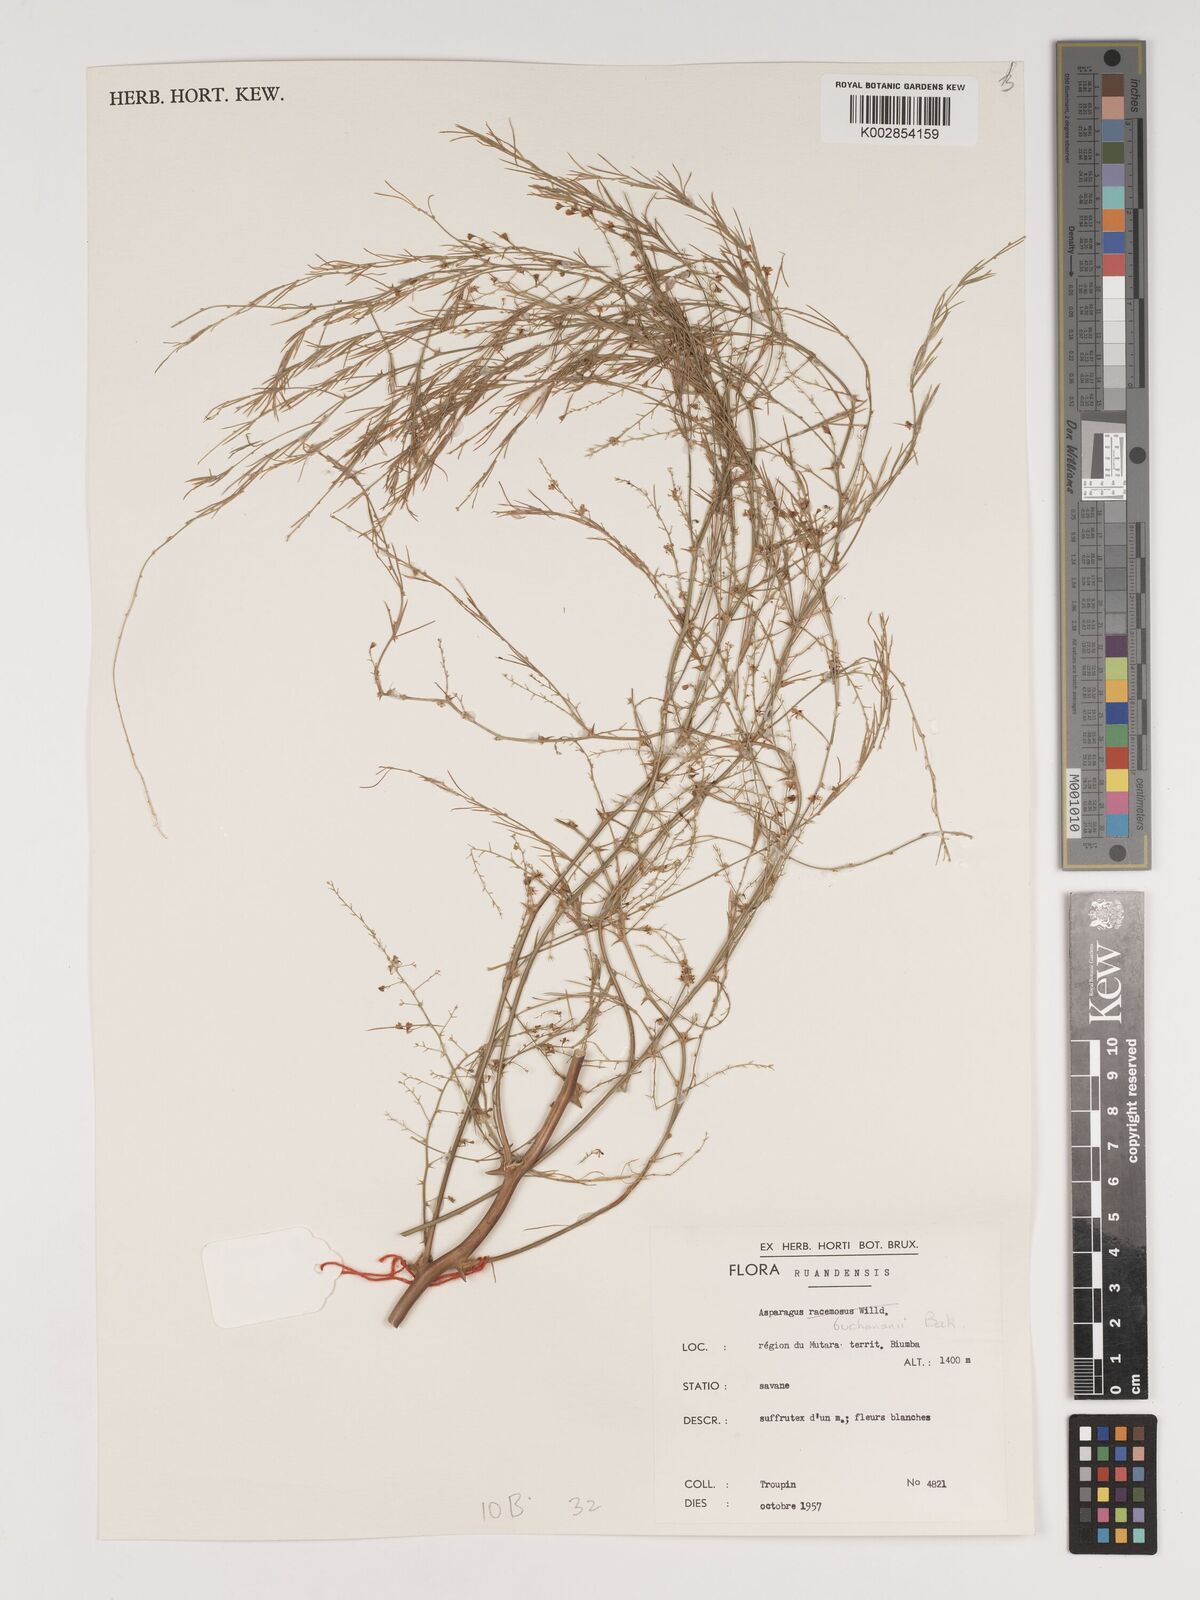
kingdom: Plantae
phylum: Tracheophyta
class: Liliopsida
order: Asparagales
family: Asparagaceae
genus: Asparagus
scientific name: Asparagus buchananii
